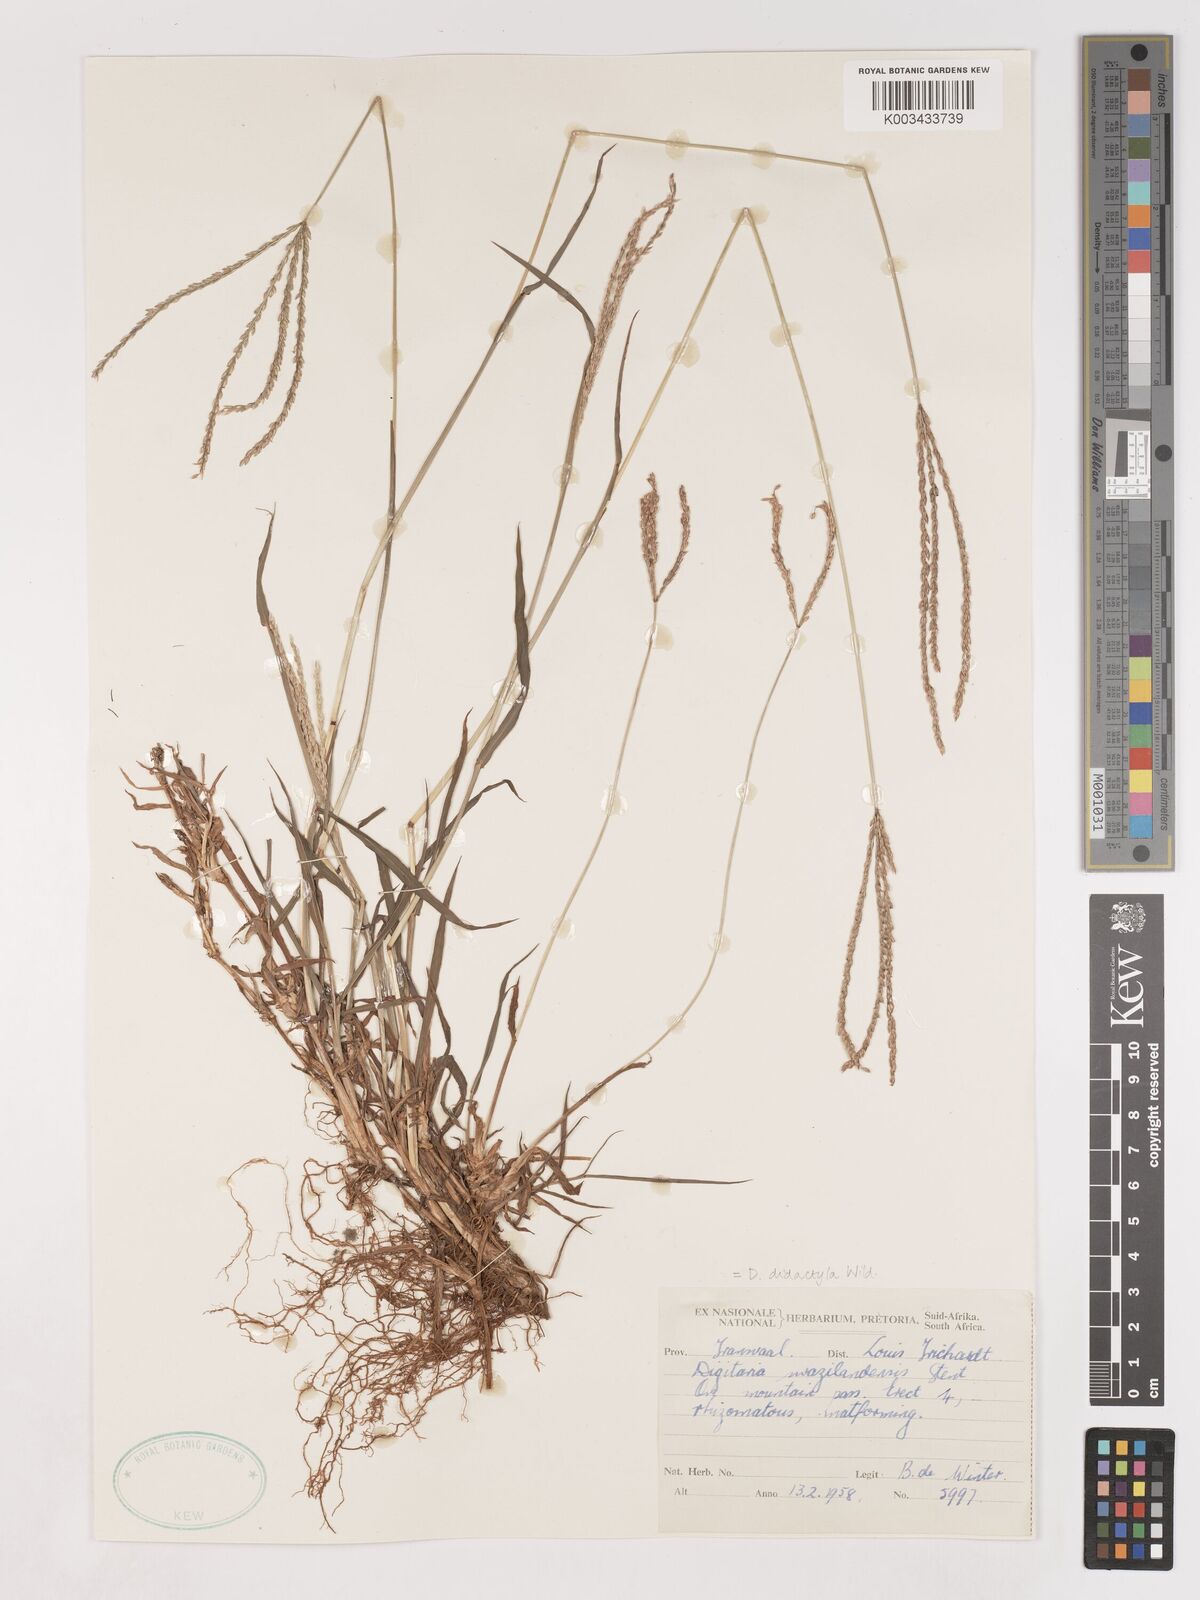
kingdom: Plantae
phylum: Tracheophyta
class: Liliopsida
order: Poales
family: Poaceae
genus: Digitaria
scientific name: Digitaria didactyla
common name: Blue couch
